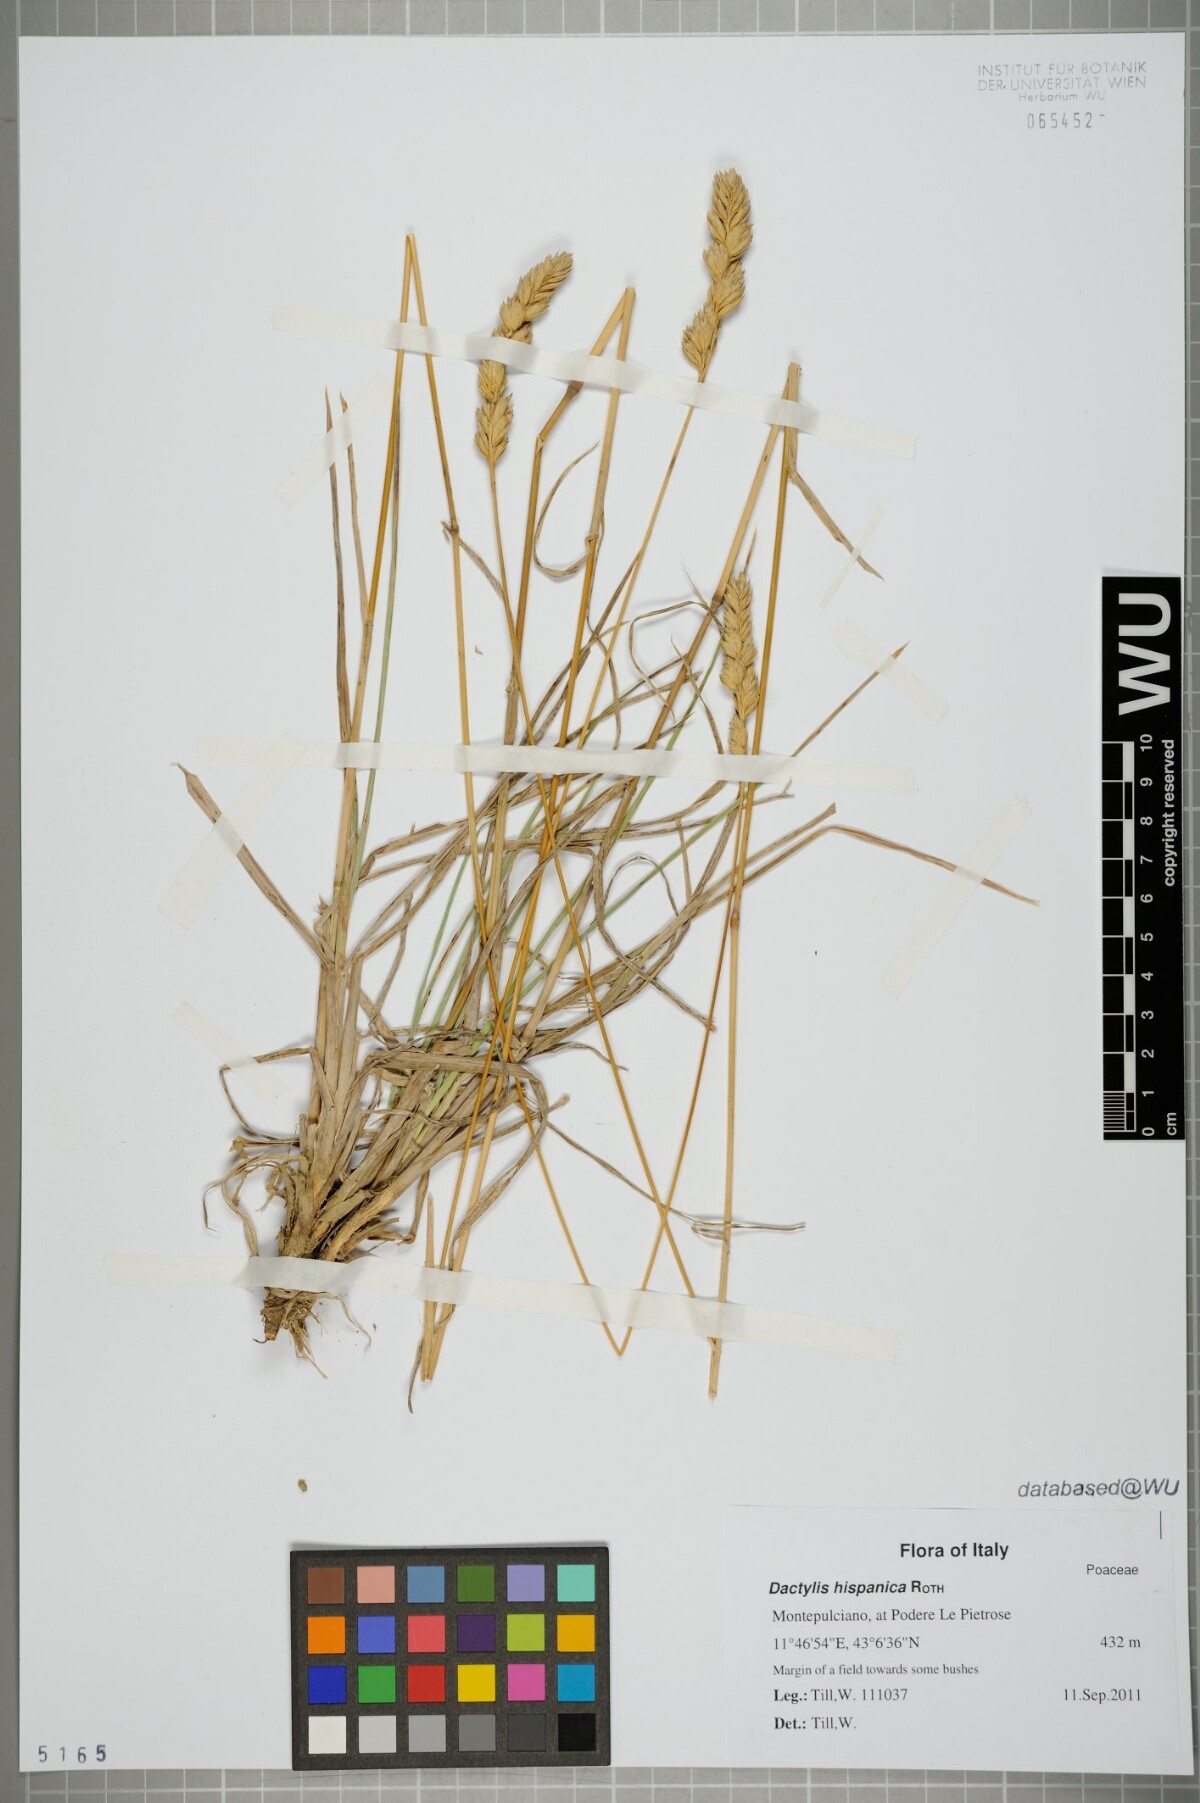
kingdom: Plantae
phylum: Tracheophyta
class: Liliopsida
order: Poales
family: Poaceae
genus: Dactylis
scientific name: Dactylis glomerata
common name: Orchardgrass
